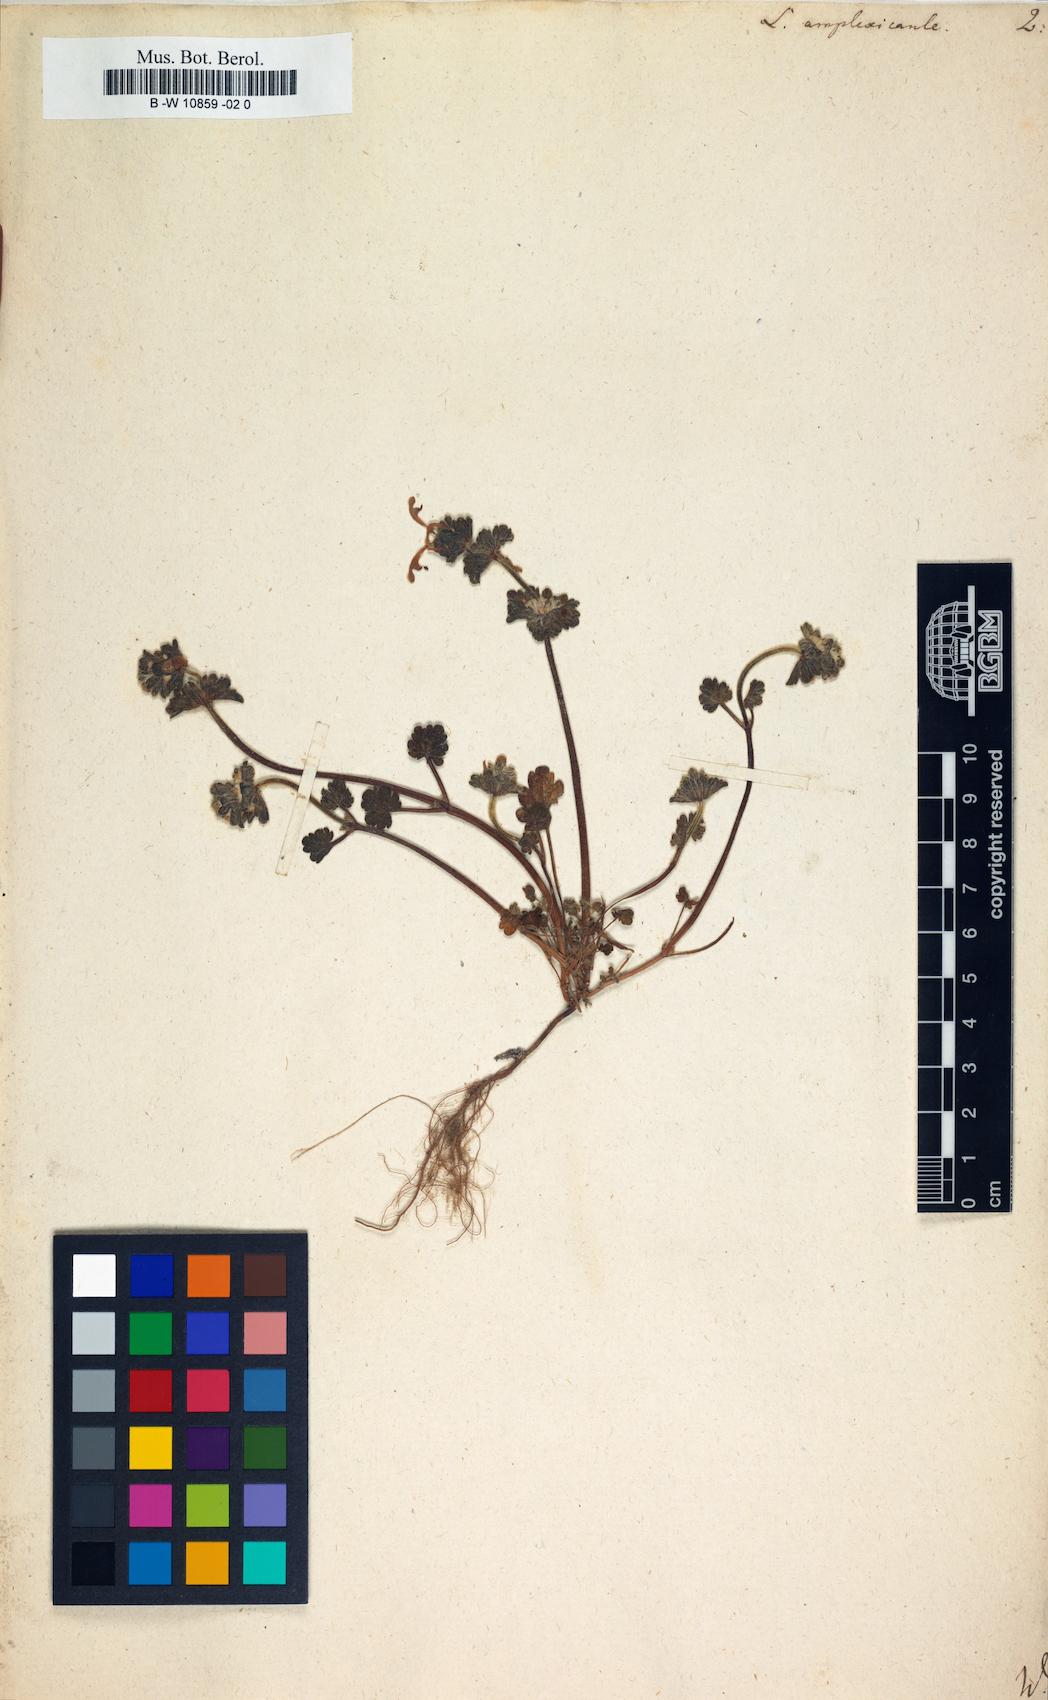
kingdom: Plantae
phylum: Tracheophyta
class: Magnoliopsida
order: Lamiales
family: Lamiaceae
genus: Lamium
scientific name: Lamium amplexicaule
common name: Henbit dead-nettle
